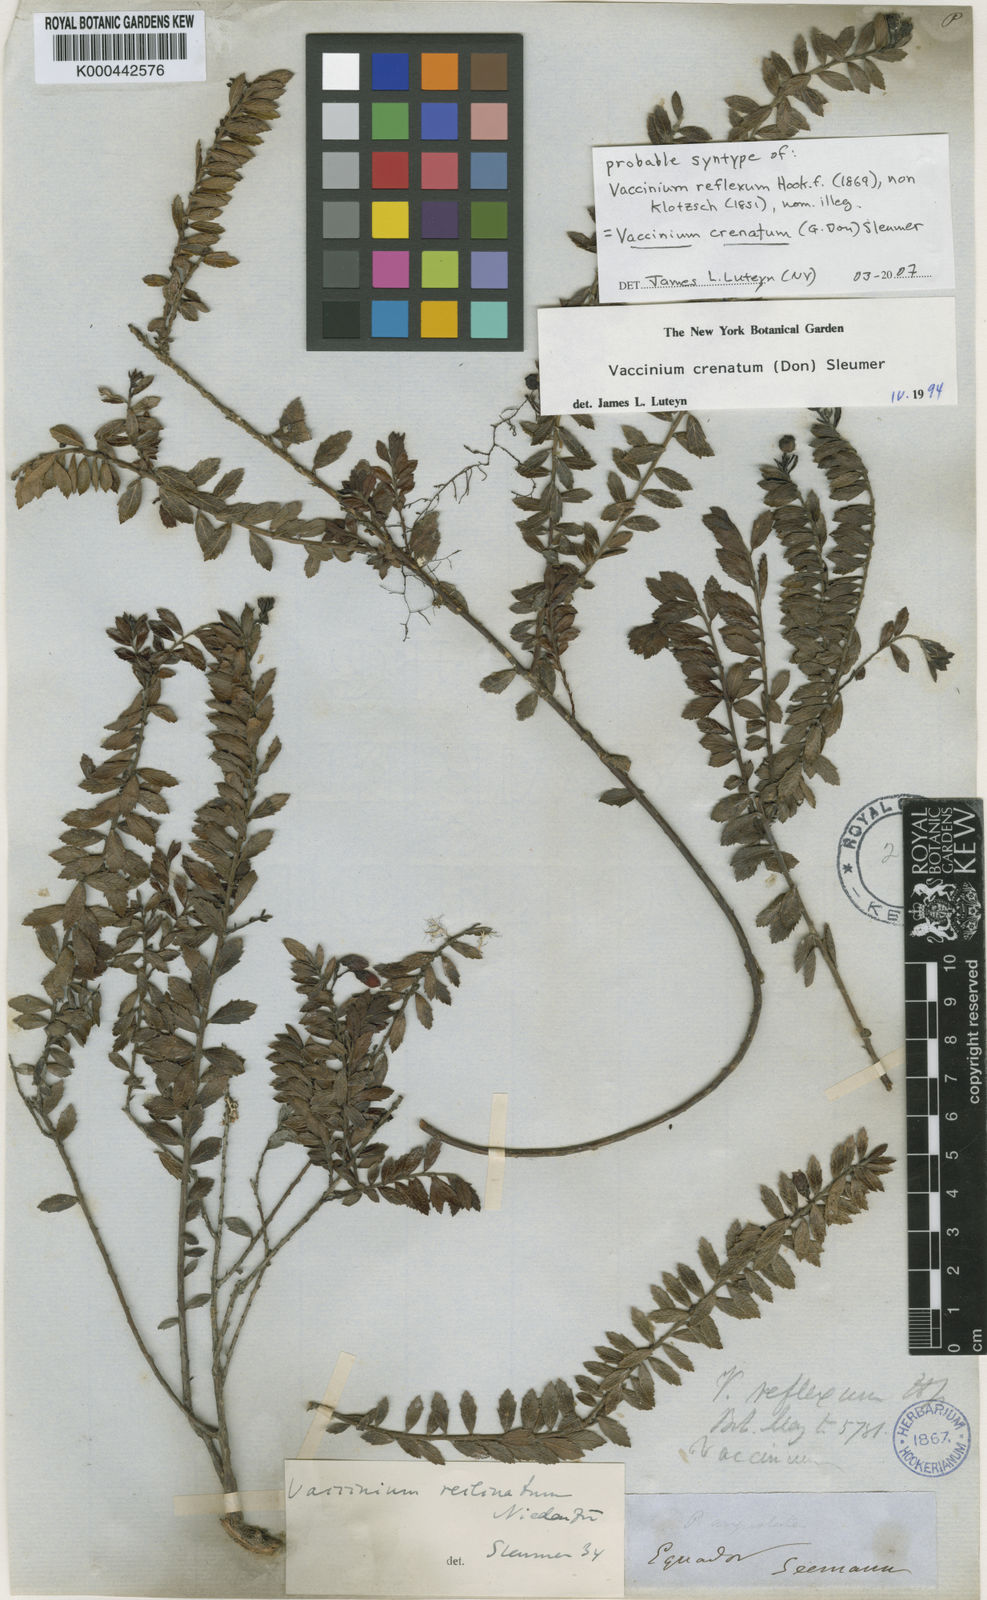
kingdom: Plantae
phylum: Tracheophyta
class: Magnoliopsida
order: Ericales
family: Ericaceae
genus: Vaccinium
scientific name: Vaccinium crenatum
